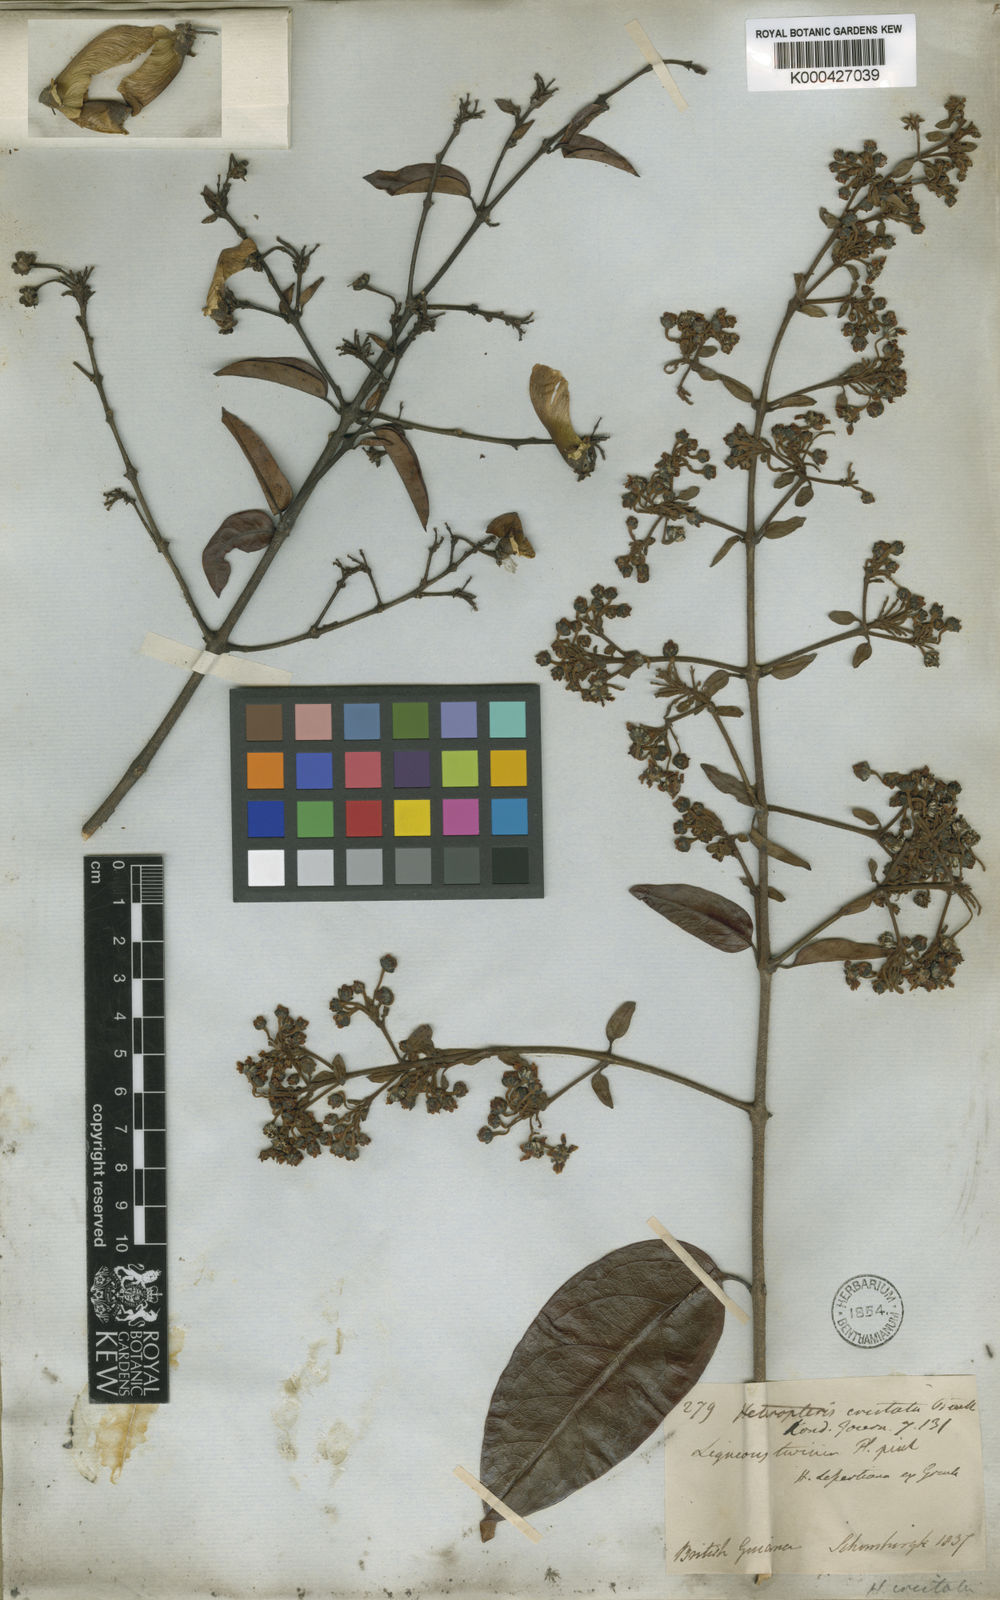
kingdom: Plantae
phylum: Tracheophyta
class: Magnoliopsida
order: Malpighiales
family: Malpighiaceae
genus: Heteropterys
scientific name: Heteropterys cristata
